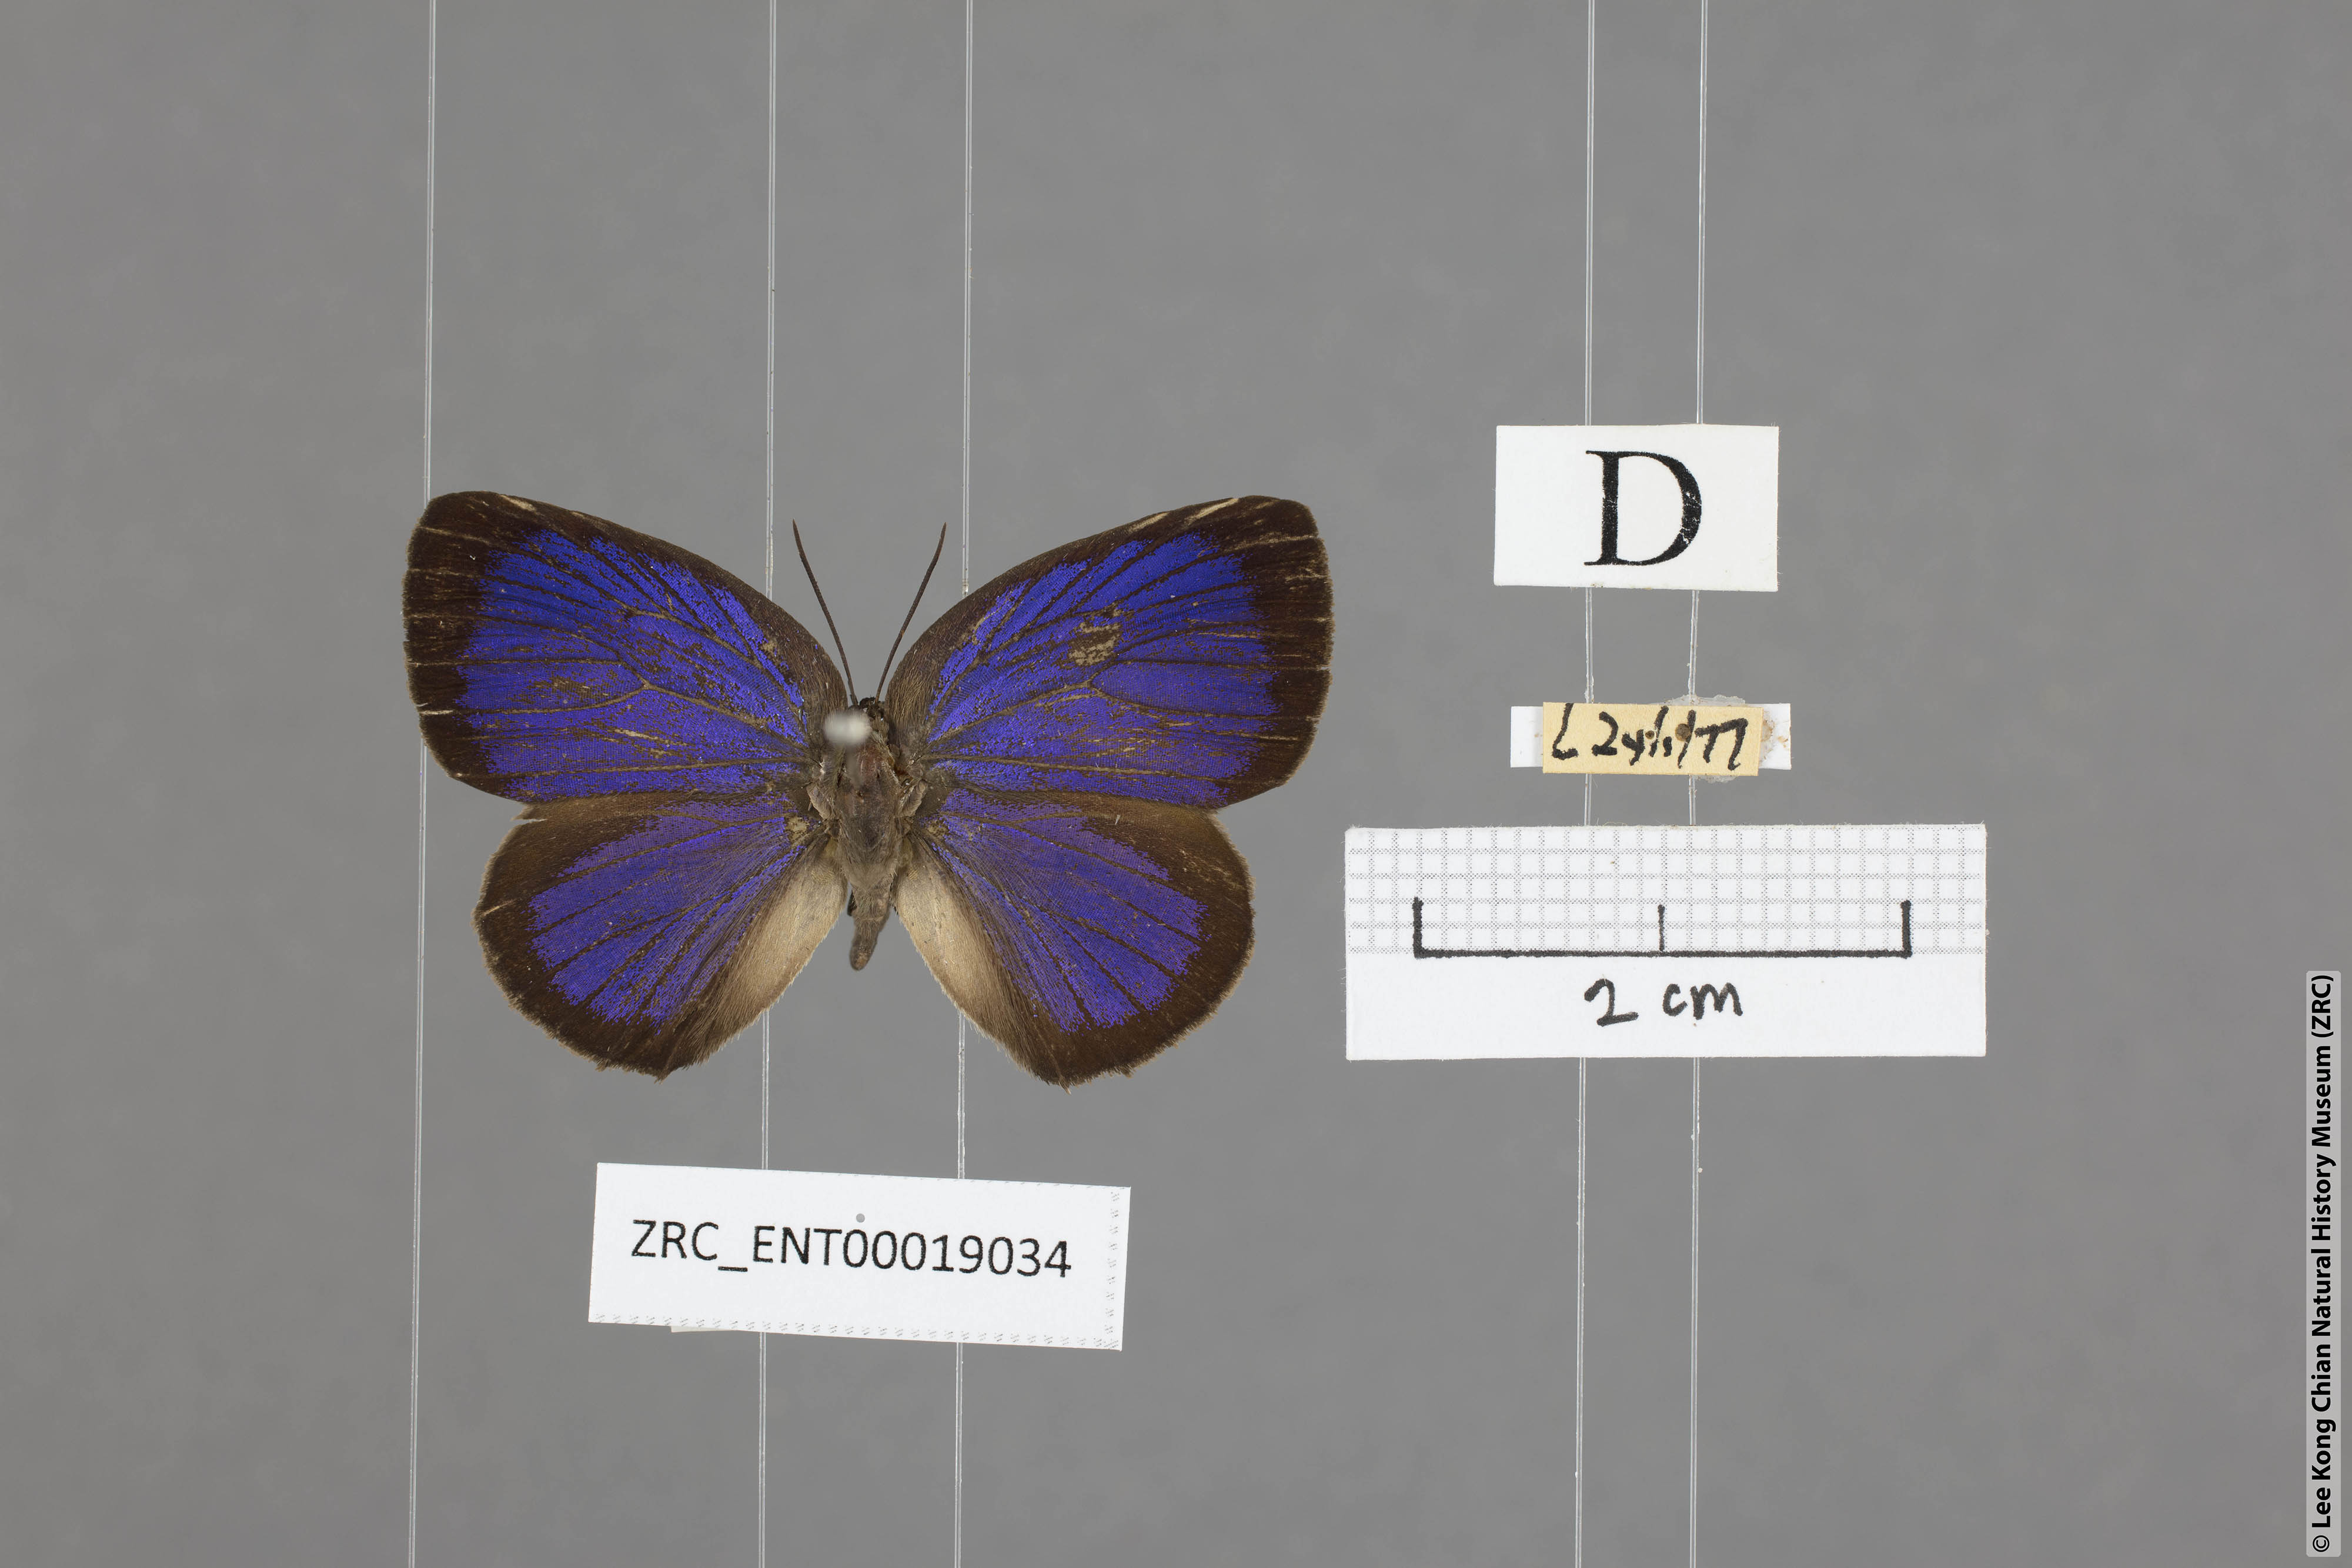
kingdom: Animalia
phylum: Arthropoda
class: Insecta
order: Lepidoptera
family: Lycaenidae
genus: Arhopala
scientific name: Arhopala agesilaus
